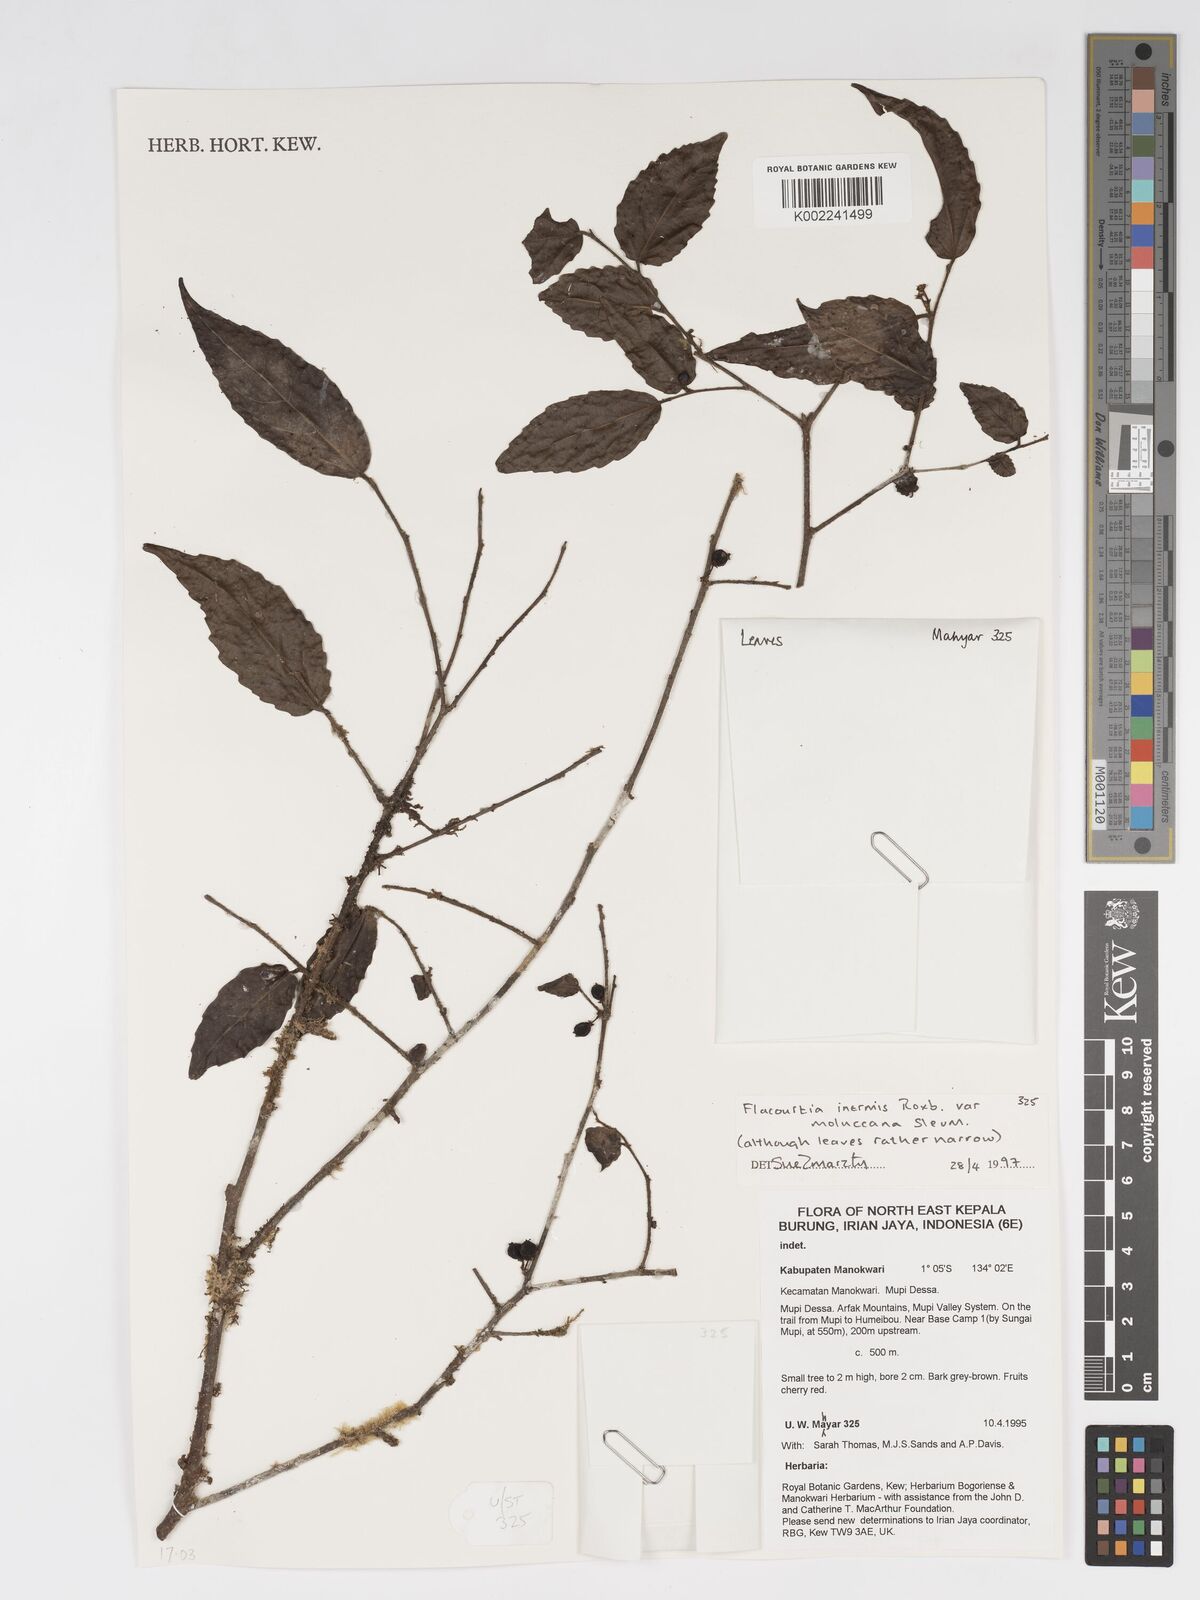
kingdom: Plantae
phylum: Tracheophyta
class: Magnoliopsida
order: Malpighiales
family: Salicaceae
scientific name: Salicaceae
